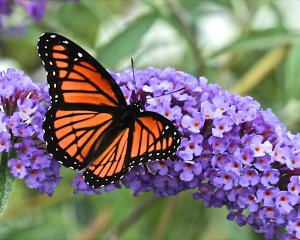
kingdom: Animalia
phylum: Arthropoda
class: Insecta
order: Lepidoptera
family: Nymphalidae
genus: Limenitis
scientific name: Limenitis archippus
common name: Viceroy
